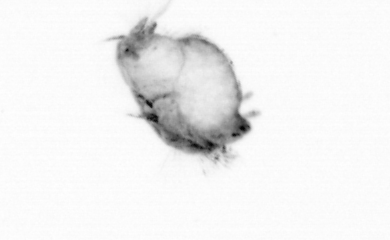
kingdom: Animalia
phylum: Annelida
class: Polychaeta
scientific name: Polychaeta
